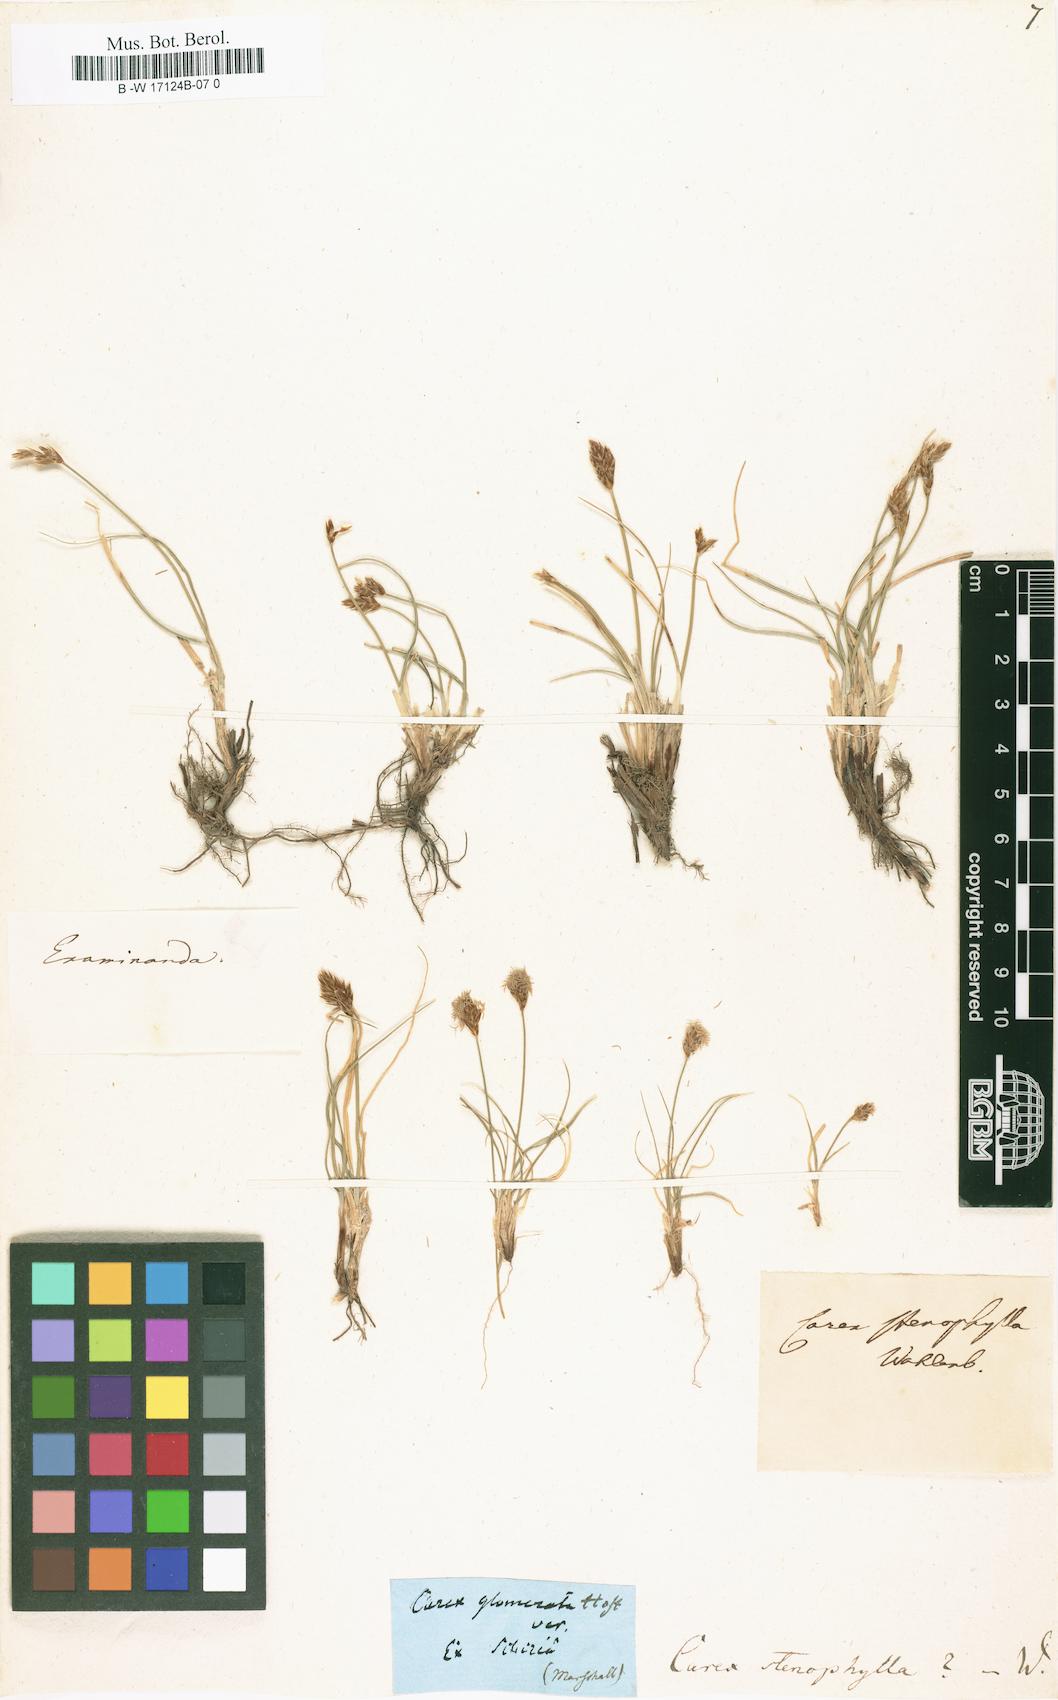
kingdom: Plantae
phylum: Tracheophyta
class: Liliopsida
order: Poales
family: Cyperaceae
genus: Carex
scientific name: Carex stenophylla
